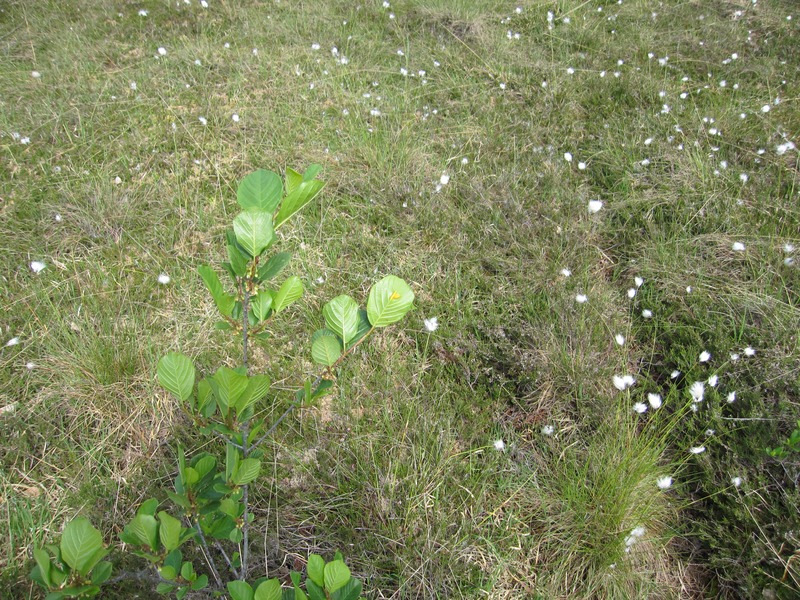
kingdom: Fungi
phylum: Basidiomycota
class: Pucciniomycetes
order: Pucciniales
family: Pucciniaceae
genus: Puccinia
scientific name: Puccinia coronata
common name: Crown rust
